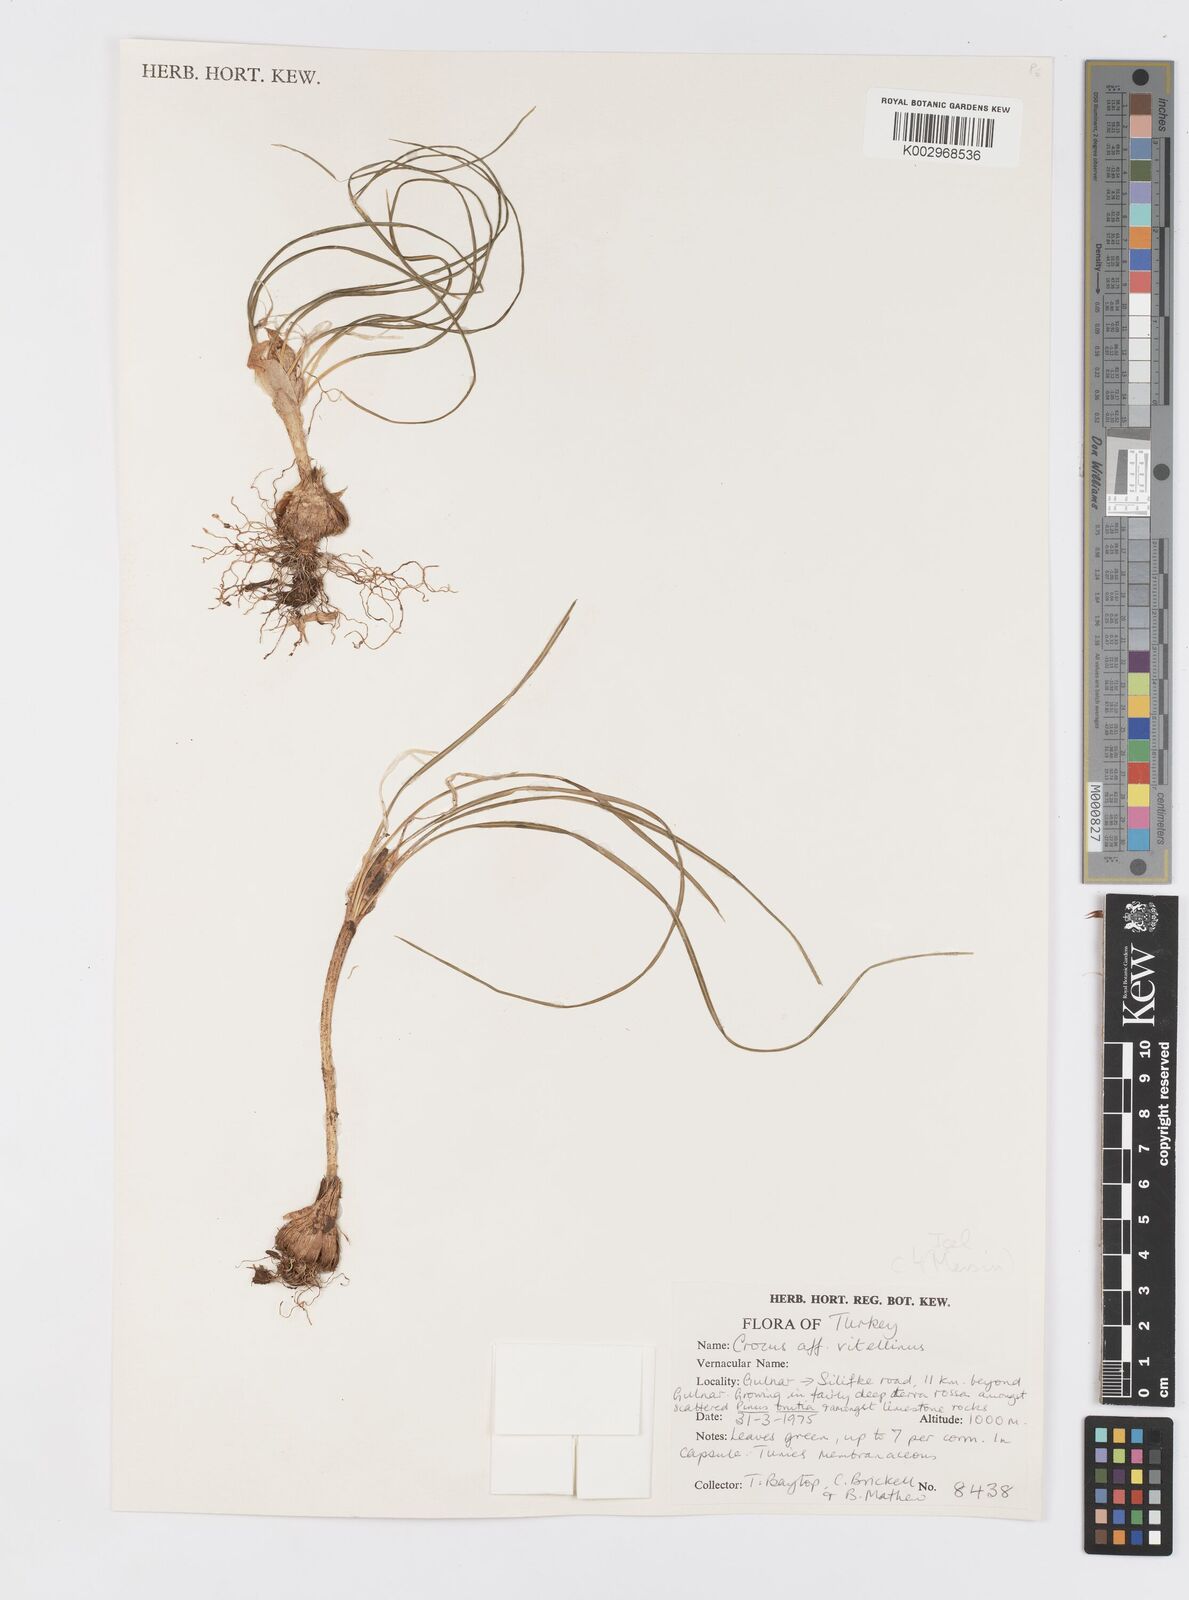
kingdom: Plantae
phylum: Tracheophyta
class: Liliopsida
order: Asparagales
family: Iridaceae
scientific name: Iridaceae
